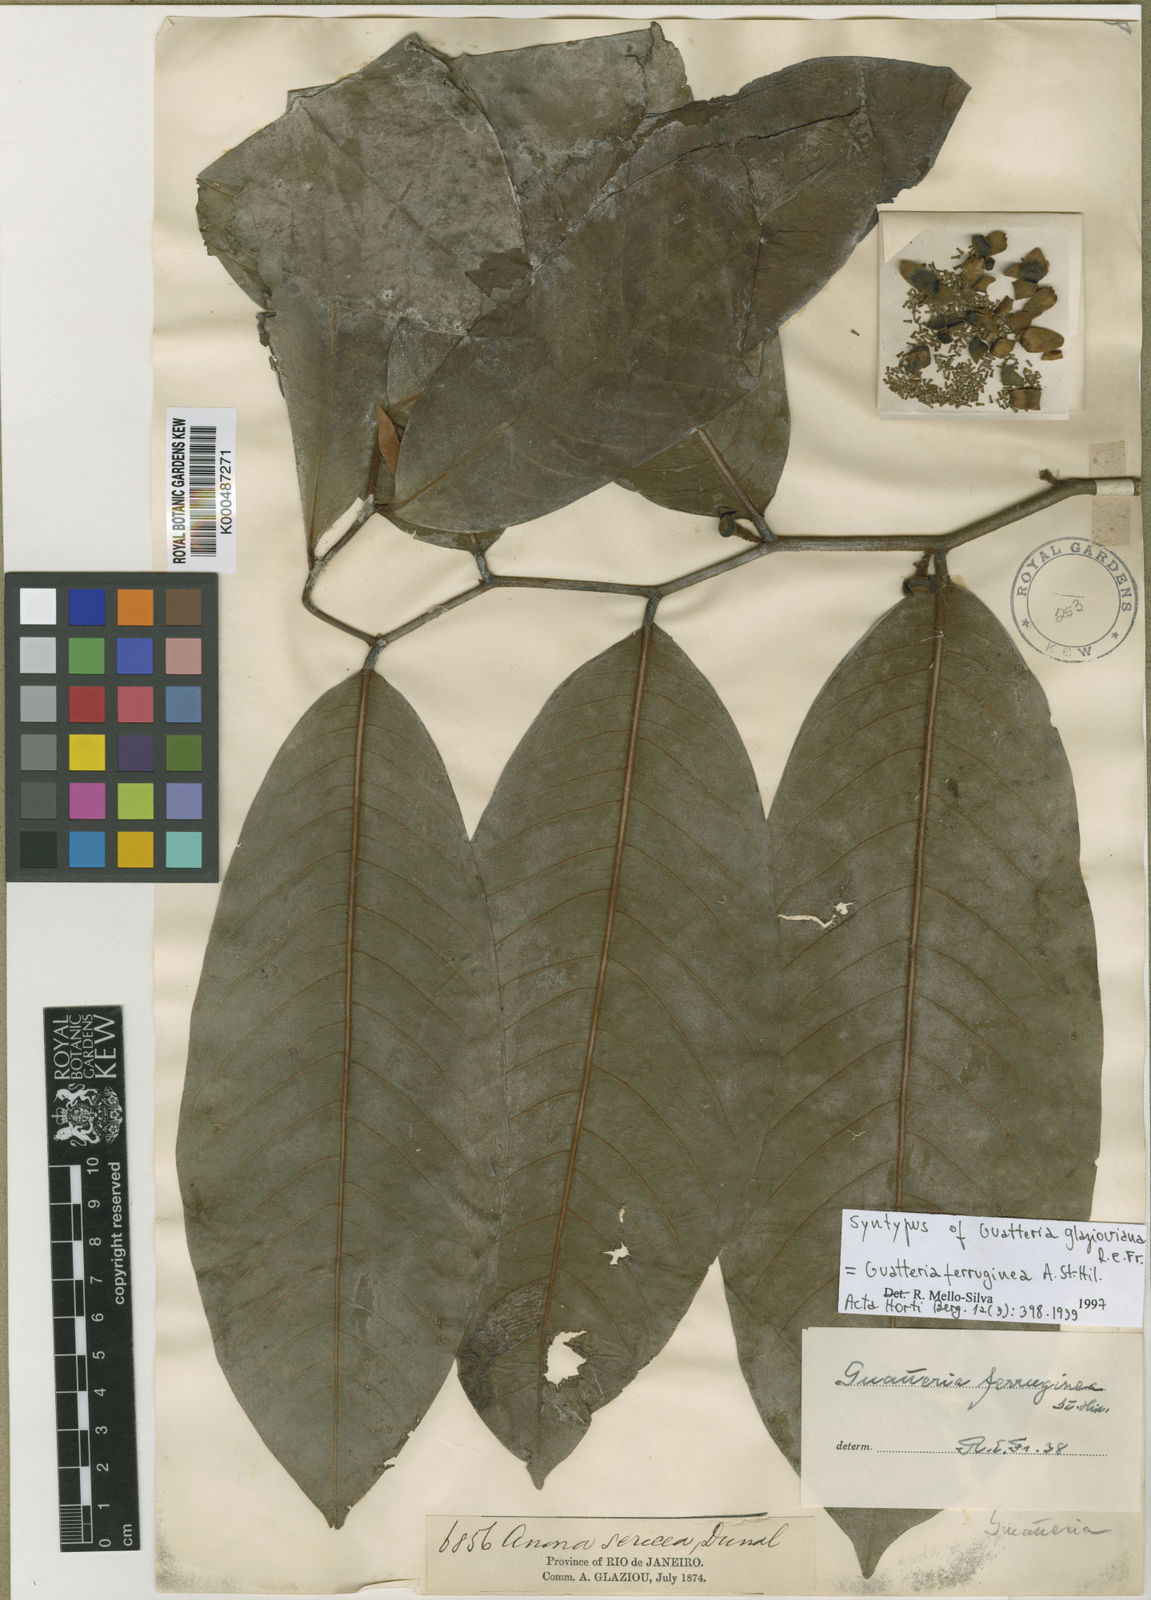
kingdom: Plantae
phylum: Tracheophyta
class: Magnoliopsida
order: Magnoliales
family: Annonaceae
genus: Guatteria
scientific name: Guatteria ferruginea
